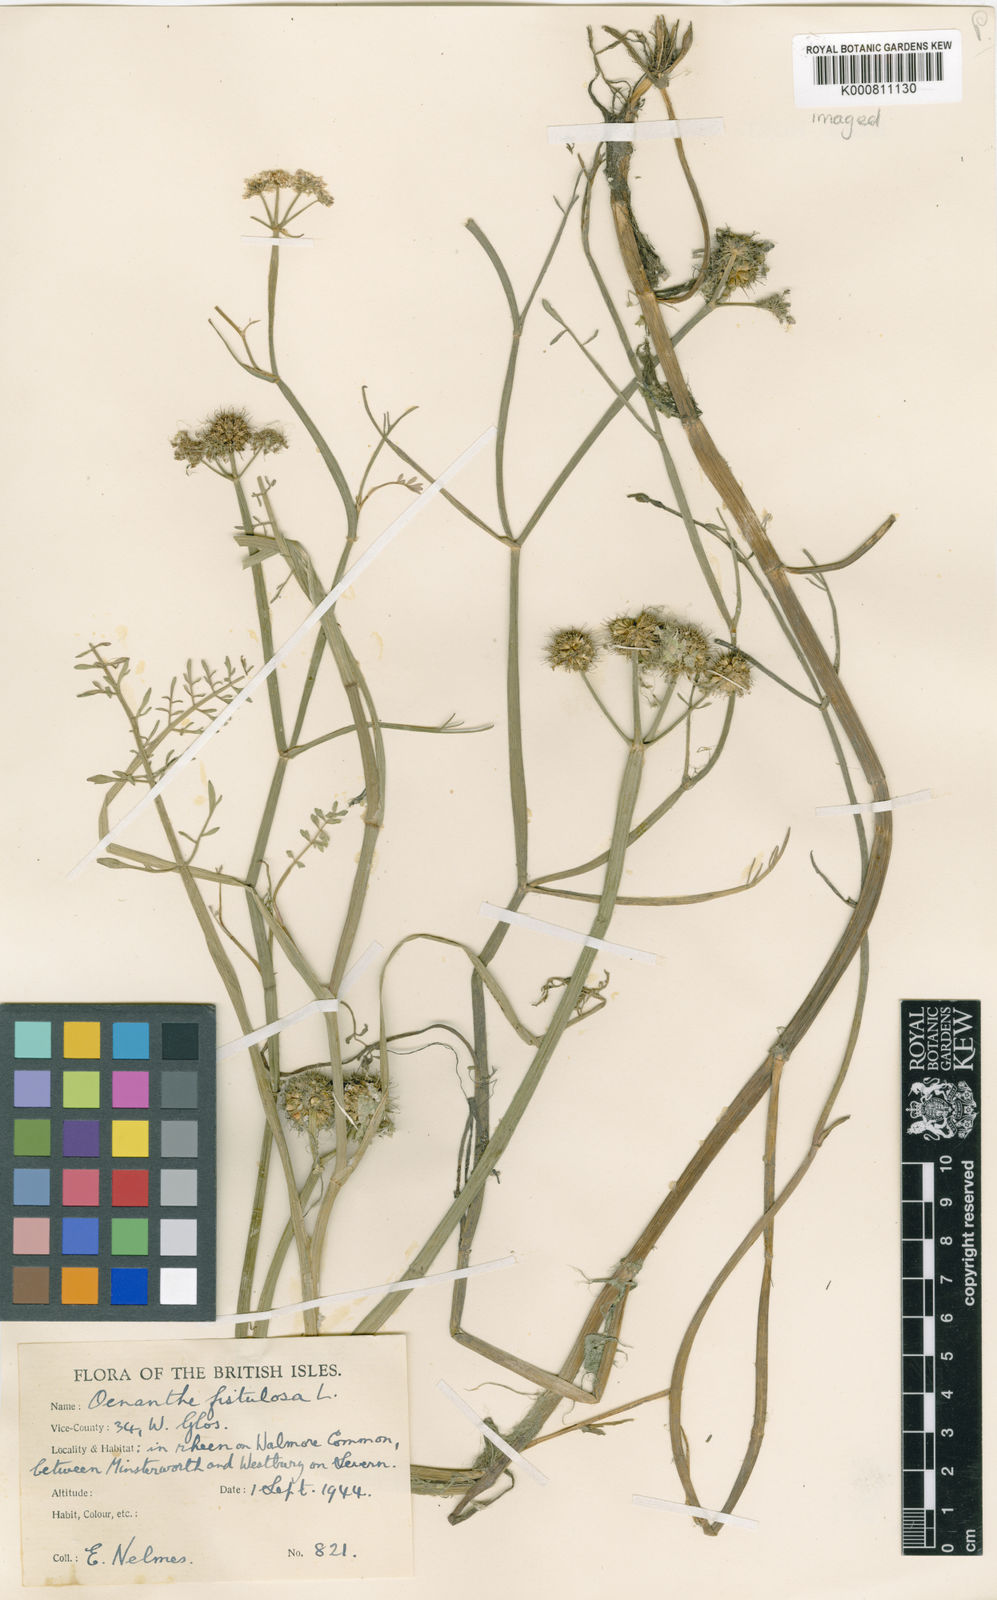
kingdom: Plantae
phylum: Tracheophyta
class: Magnoliopsida
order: Apiales
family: Apiaceae
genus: Oenanthe
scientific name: Oenanthe fistulosa
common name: Tubular water-dropwort
